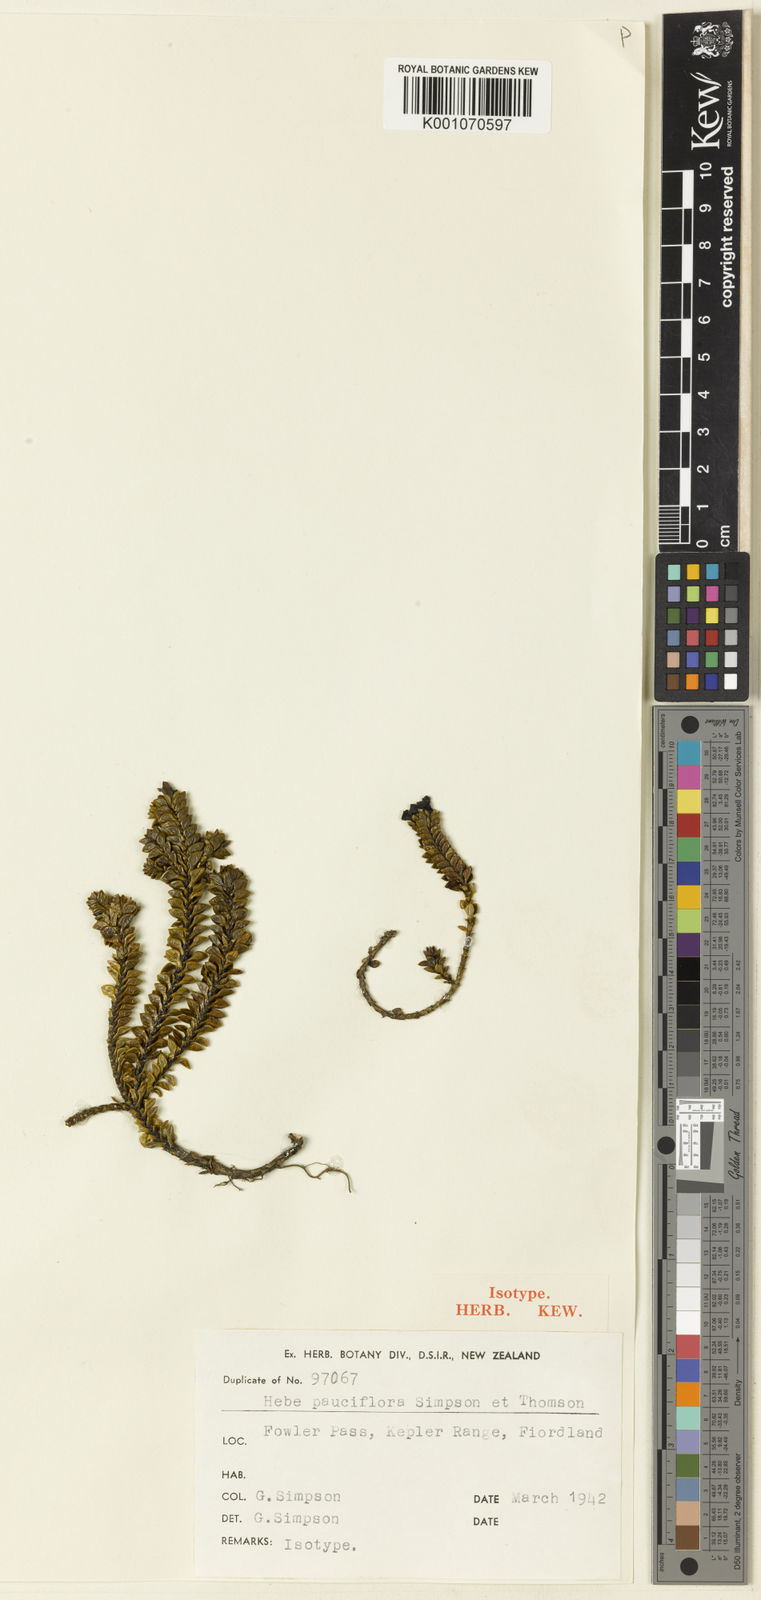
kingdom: Plantae
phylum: Tracheophyta
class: Magnoliopsida
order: Lamiales
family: Plantaginaceae
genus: Veronica
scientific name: Veronica notialis
